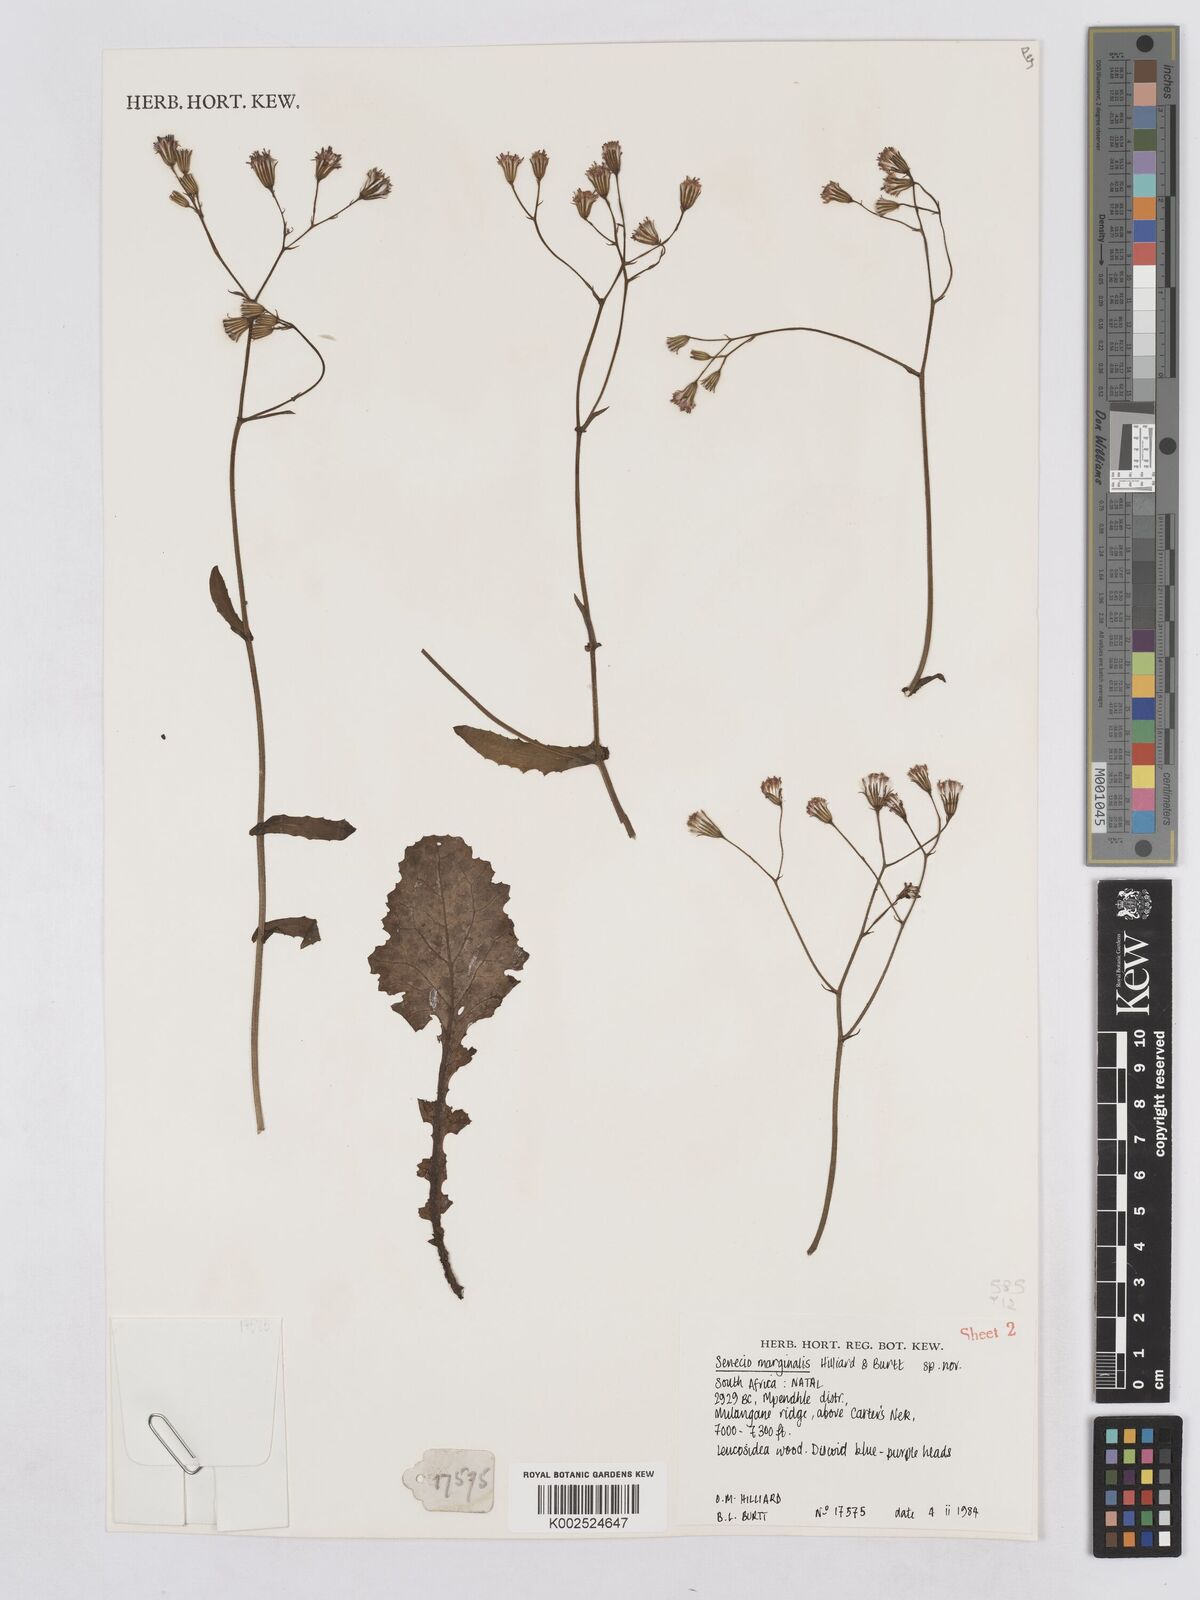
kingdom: Plantae
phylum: Tracheophyta
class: Magnoliopsida
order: Asterales
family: Asteraceae
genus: Senecio
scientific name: Senecio marginalis
